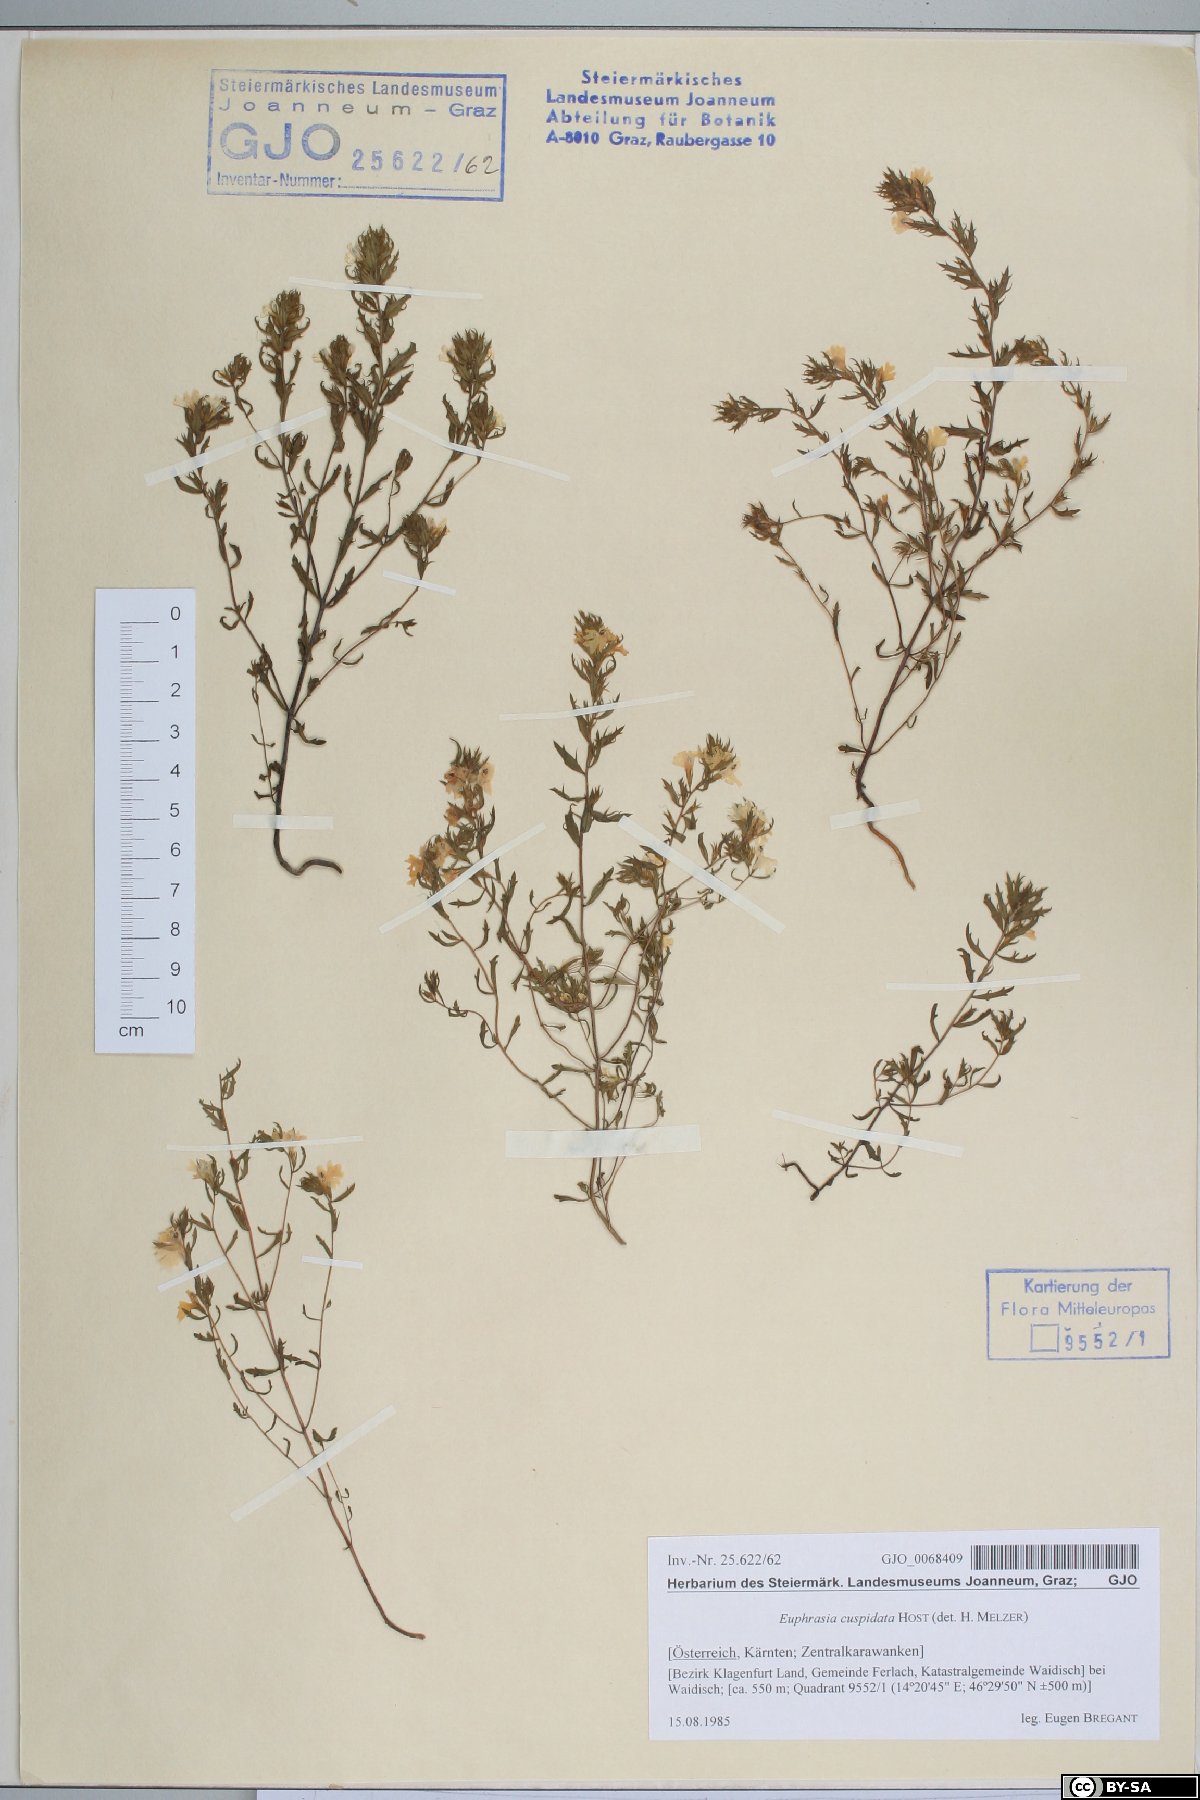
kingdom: Plantae
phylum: Tracheophyta
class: Magnoliopsida
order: Lamiales
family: Orobanchaceae
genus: Euphrasia
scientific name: Euphrasia cuspidata
